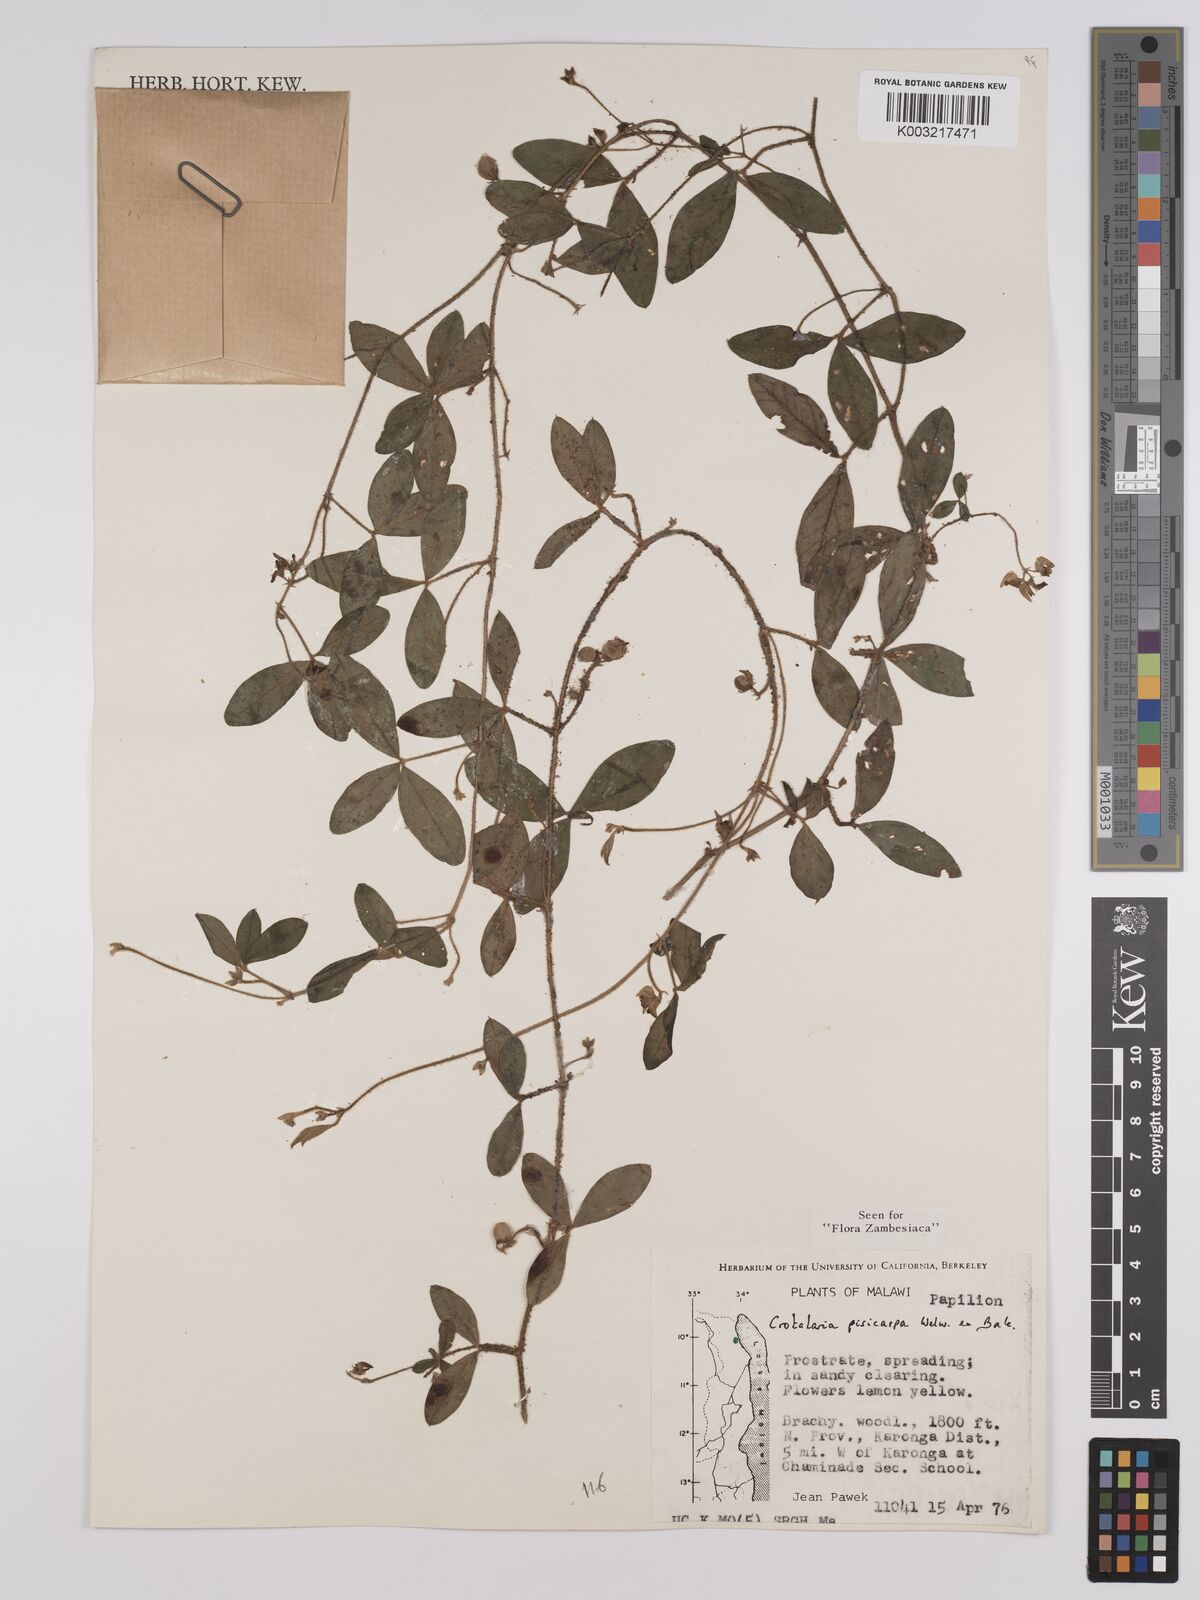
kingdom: Plantae
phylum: Tracheophyta
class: Magnoliopsida
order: Fabales
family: Fabaceae
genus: Crotalaria
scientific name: Crotalaria pisicarpa
